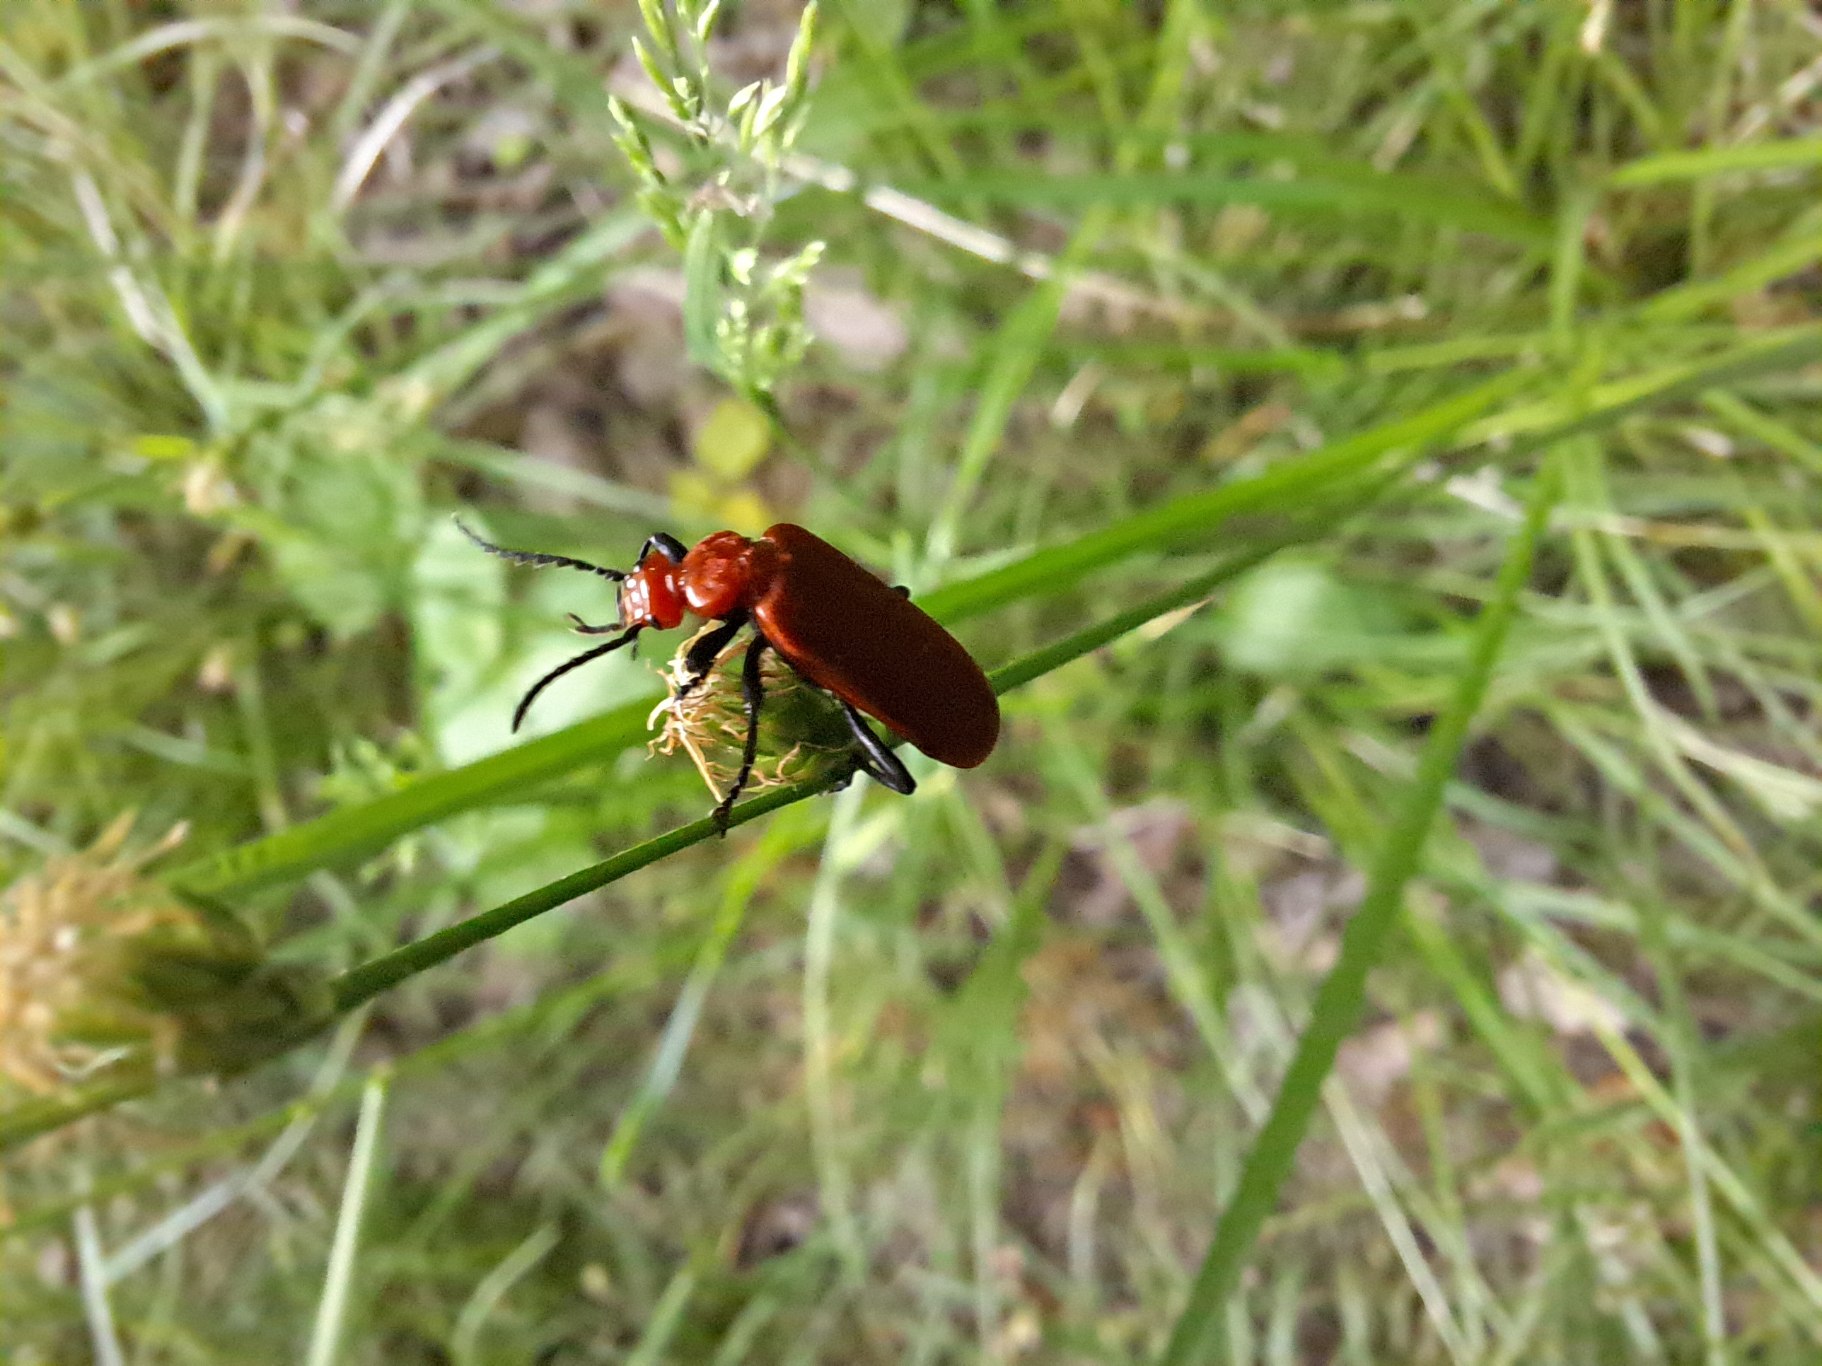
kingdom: Animalia
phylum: Arthropoda
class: Insecta
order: Coleoptera
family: Pyrochroidae
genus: Pyrochroa
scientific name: Pyrochroa serraticornis
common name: Rødhovedet kardinalbille
